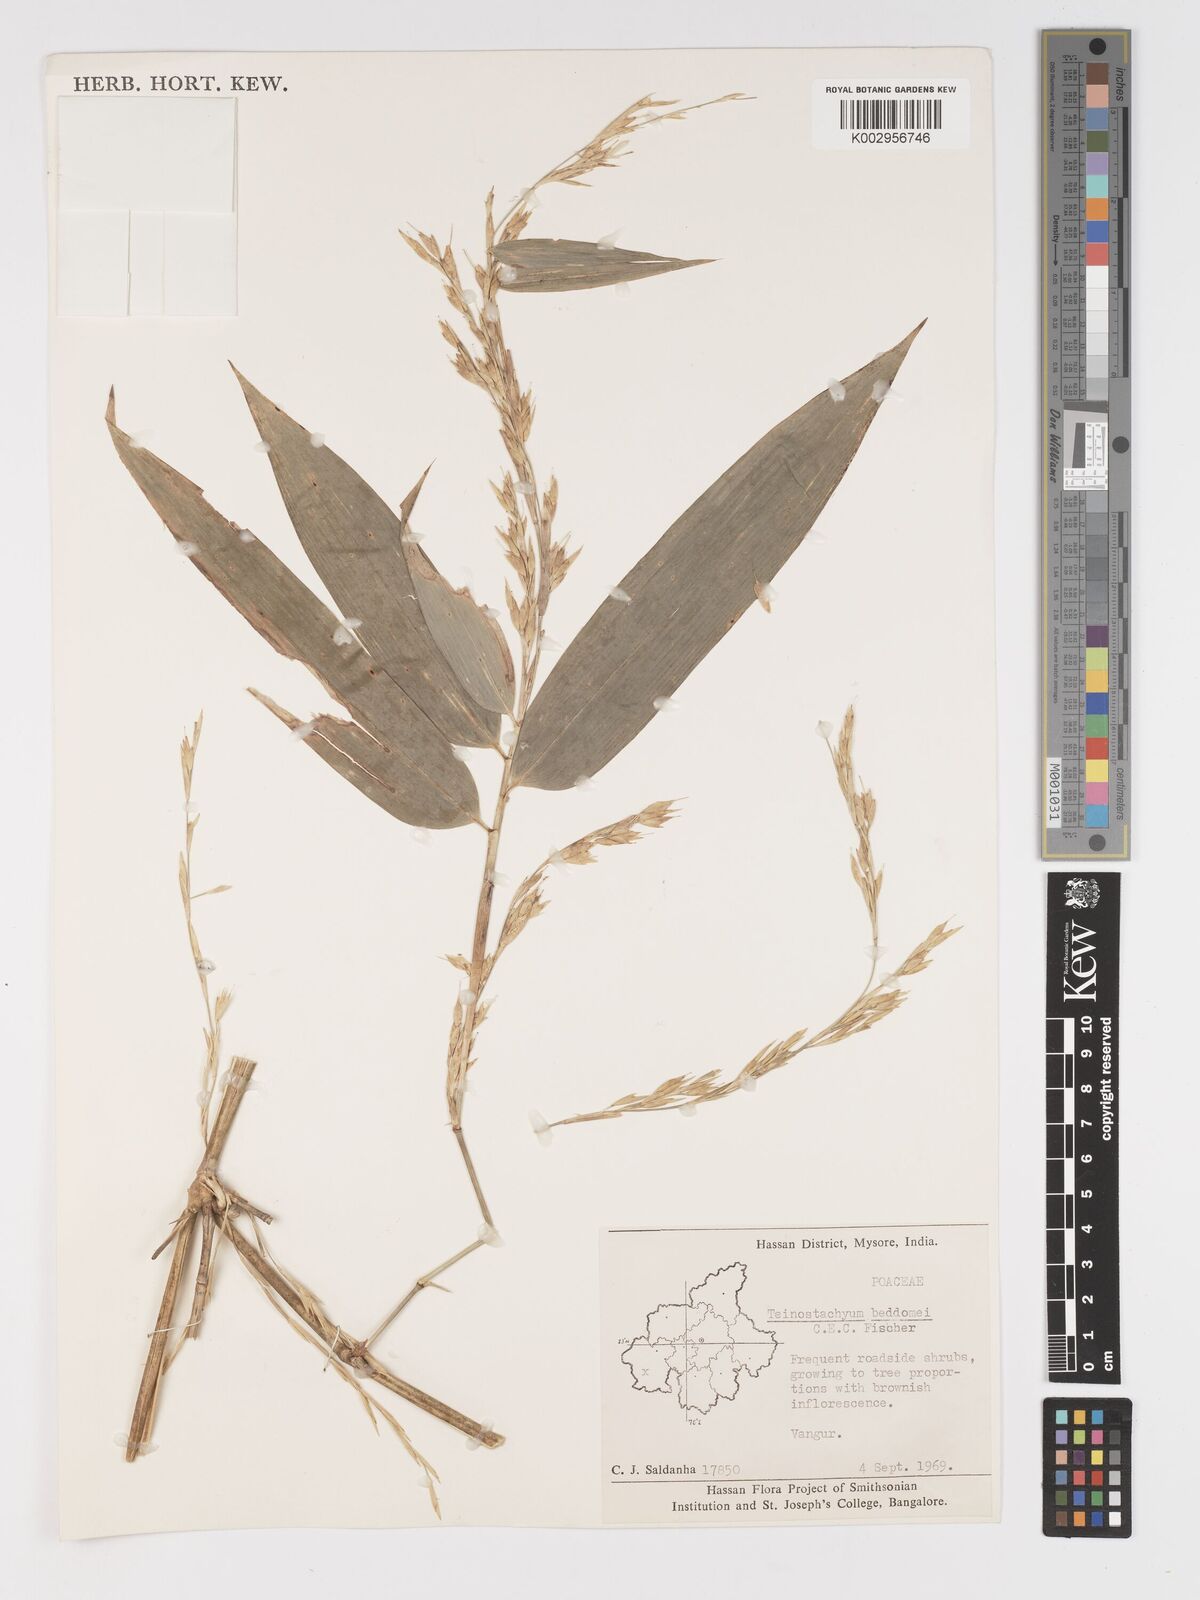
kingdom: Plantae
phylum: Tracheophyta
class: Liliopsida
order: Poales
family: Poaceae
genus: Schizostachyum
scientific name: Schizostachyum beddomei
